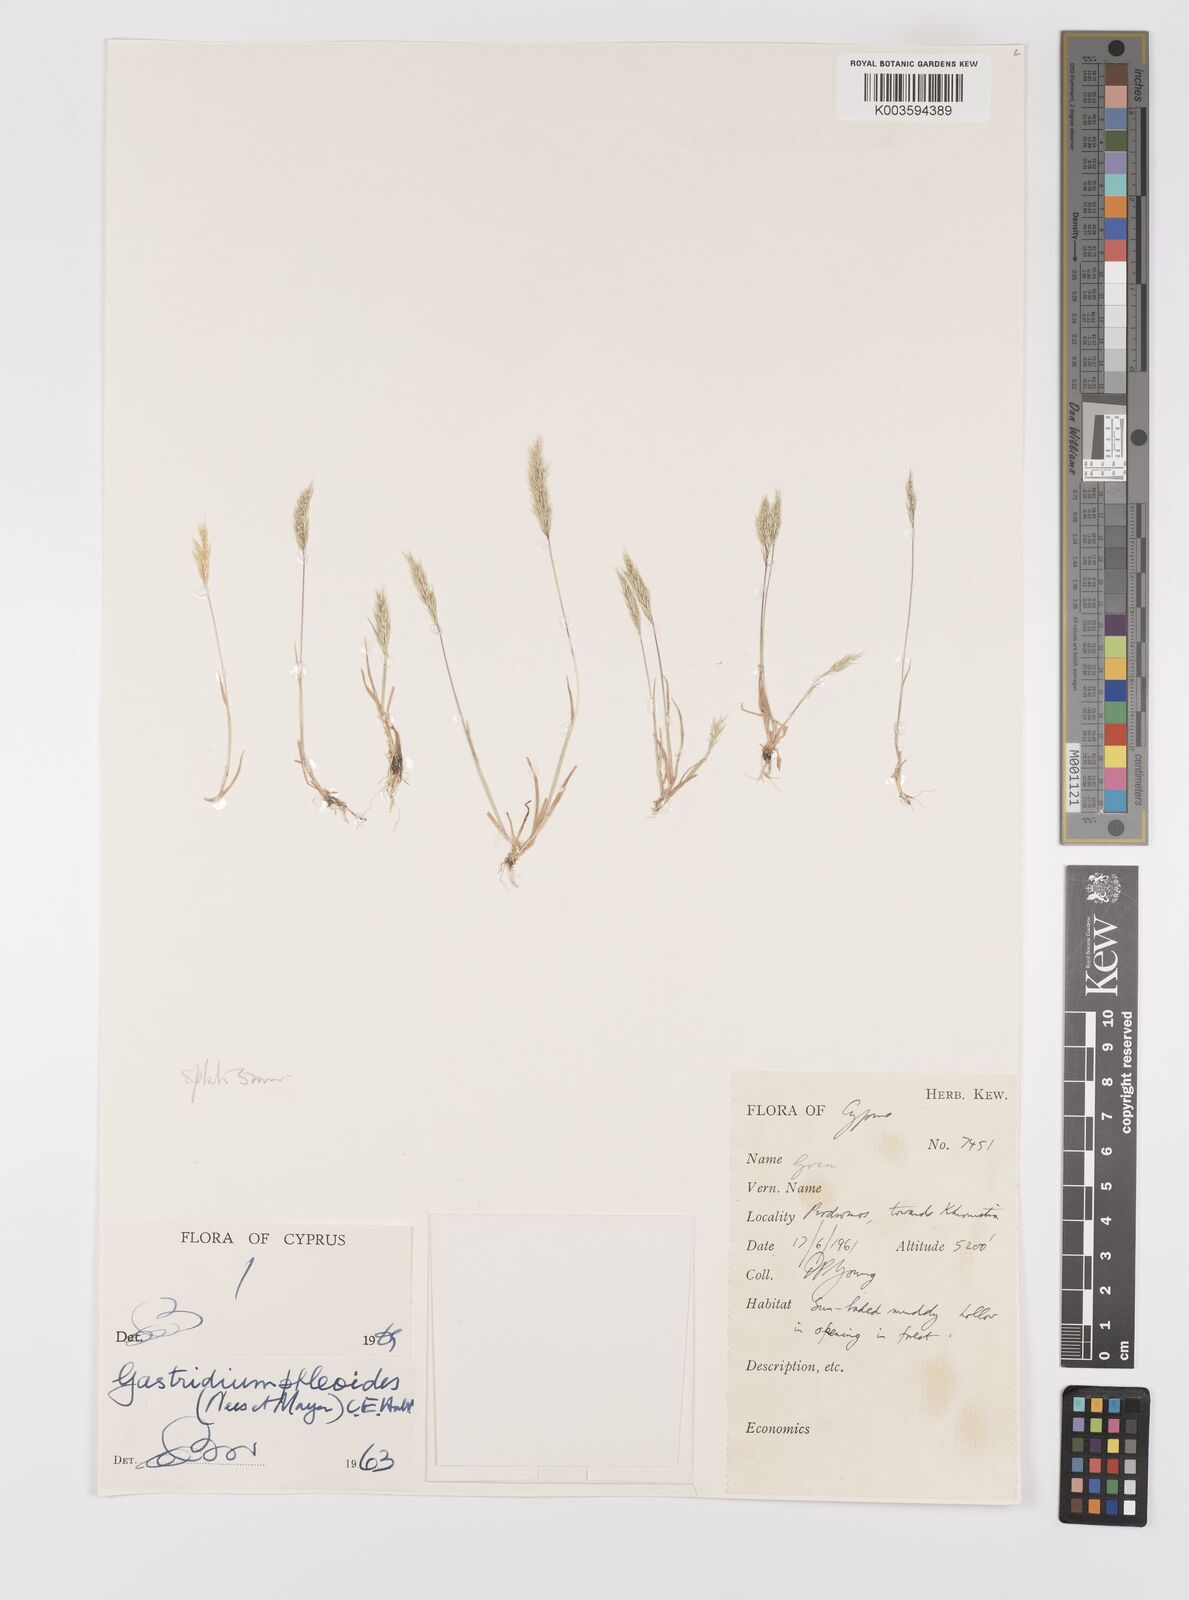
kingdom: Plantae
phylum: Tracheophyta
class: Liliopsida
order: Poales
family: Poaceae
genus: Gastridium
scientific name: Gastridium phleoides
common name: Nit grass
